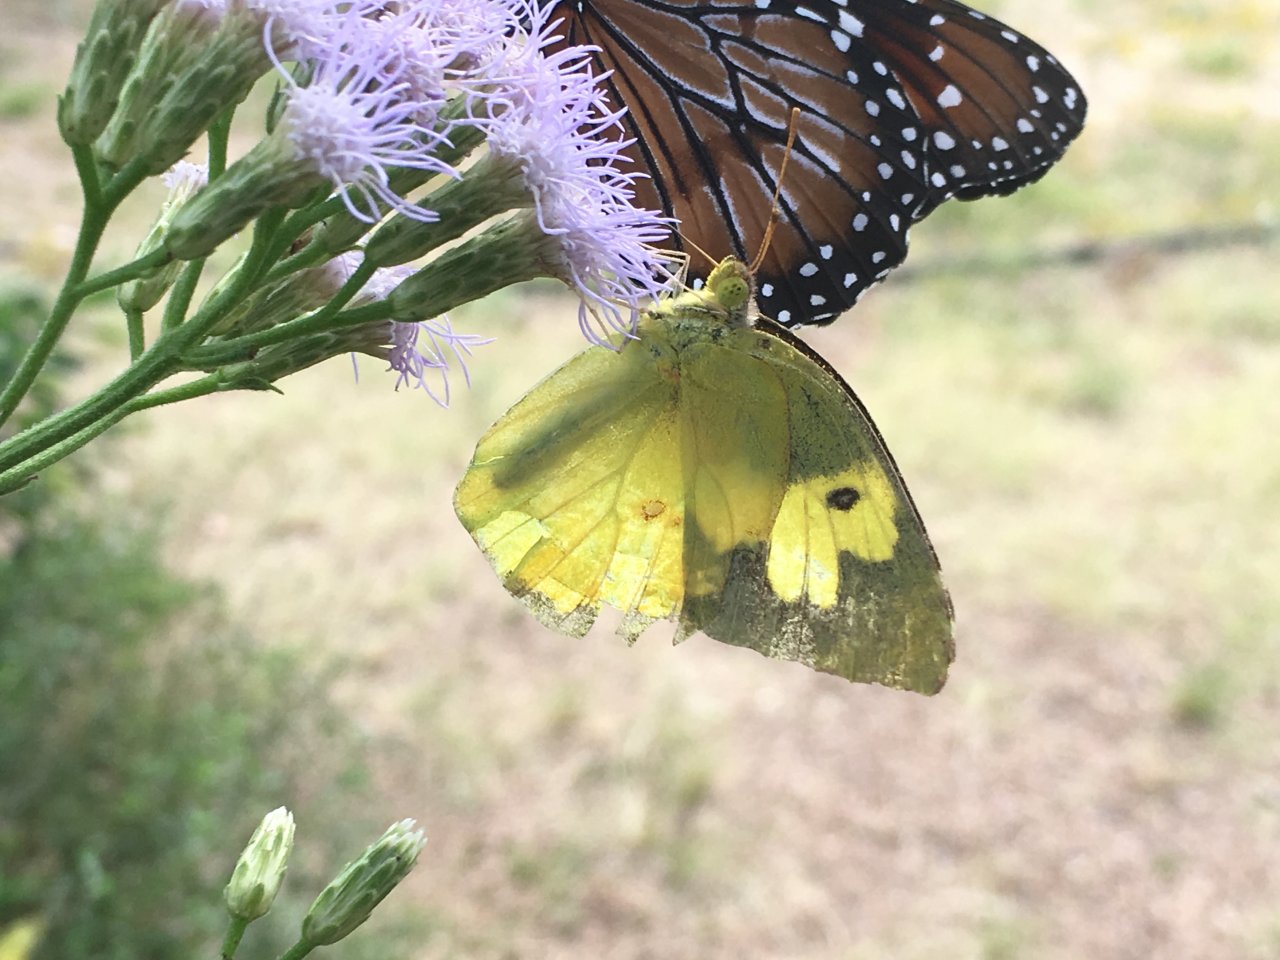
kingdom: Animalia
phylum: Arthropoda
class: Insecta
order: Lepidoptera
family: Pieridae
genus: Zerene
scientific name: Zerene cesonia
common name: Southern Dogface
